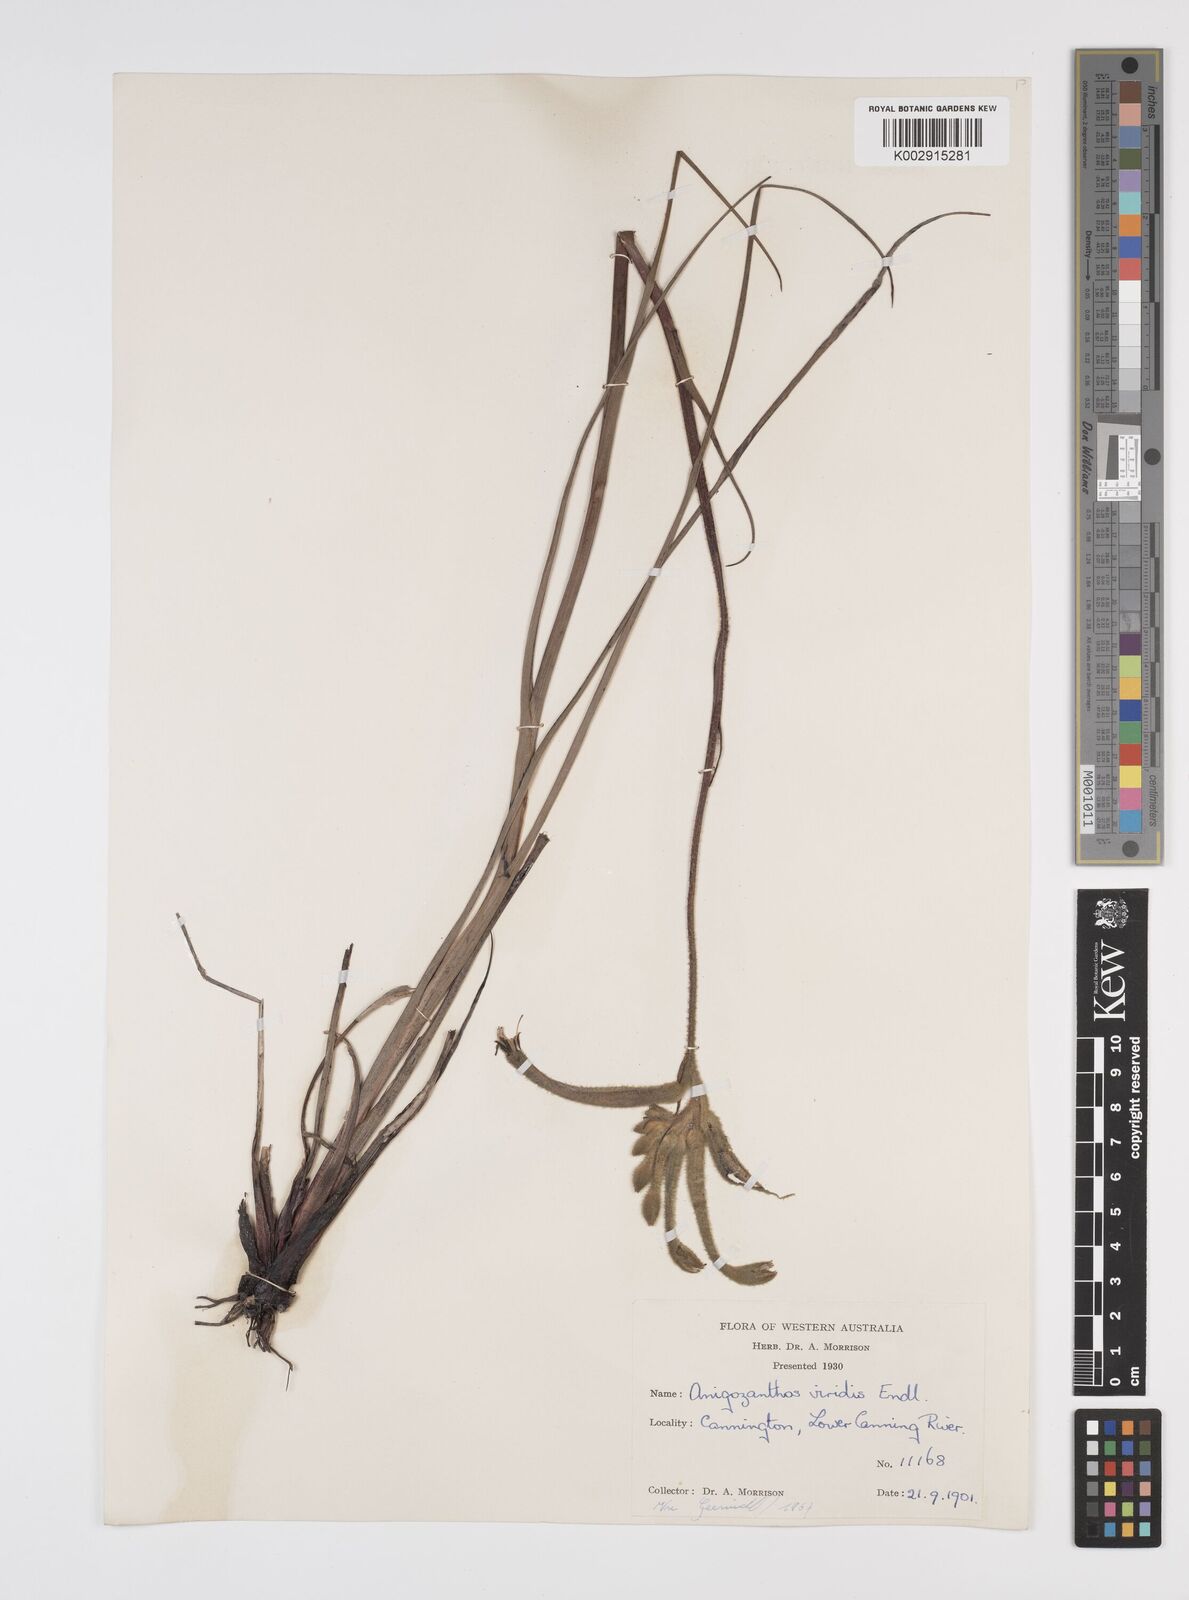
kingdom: Plantae
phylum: Tracheophyta
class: Liliopsida
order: Commelinales
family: Haemodoraceae
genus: Anigozanthos
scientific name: Anigozanthos viridis
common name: Green kangaroo-paw
